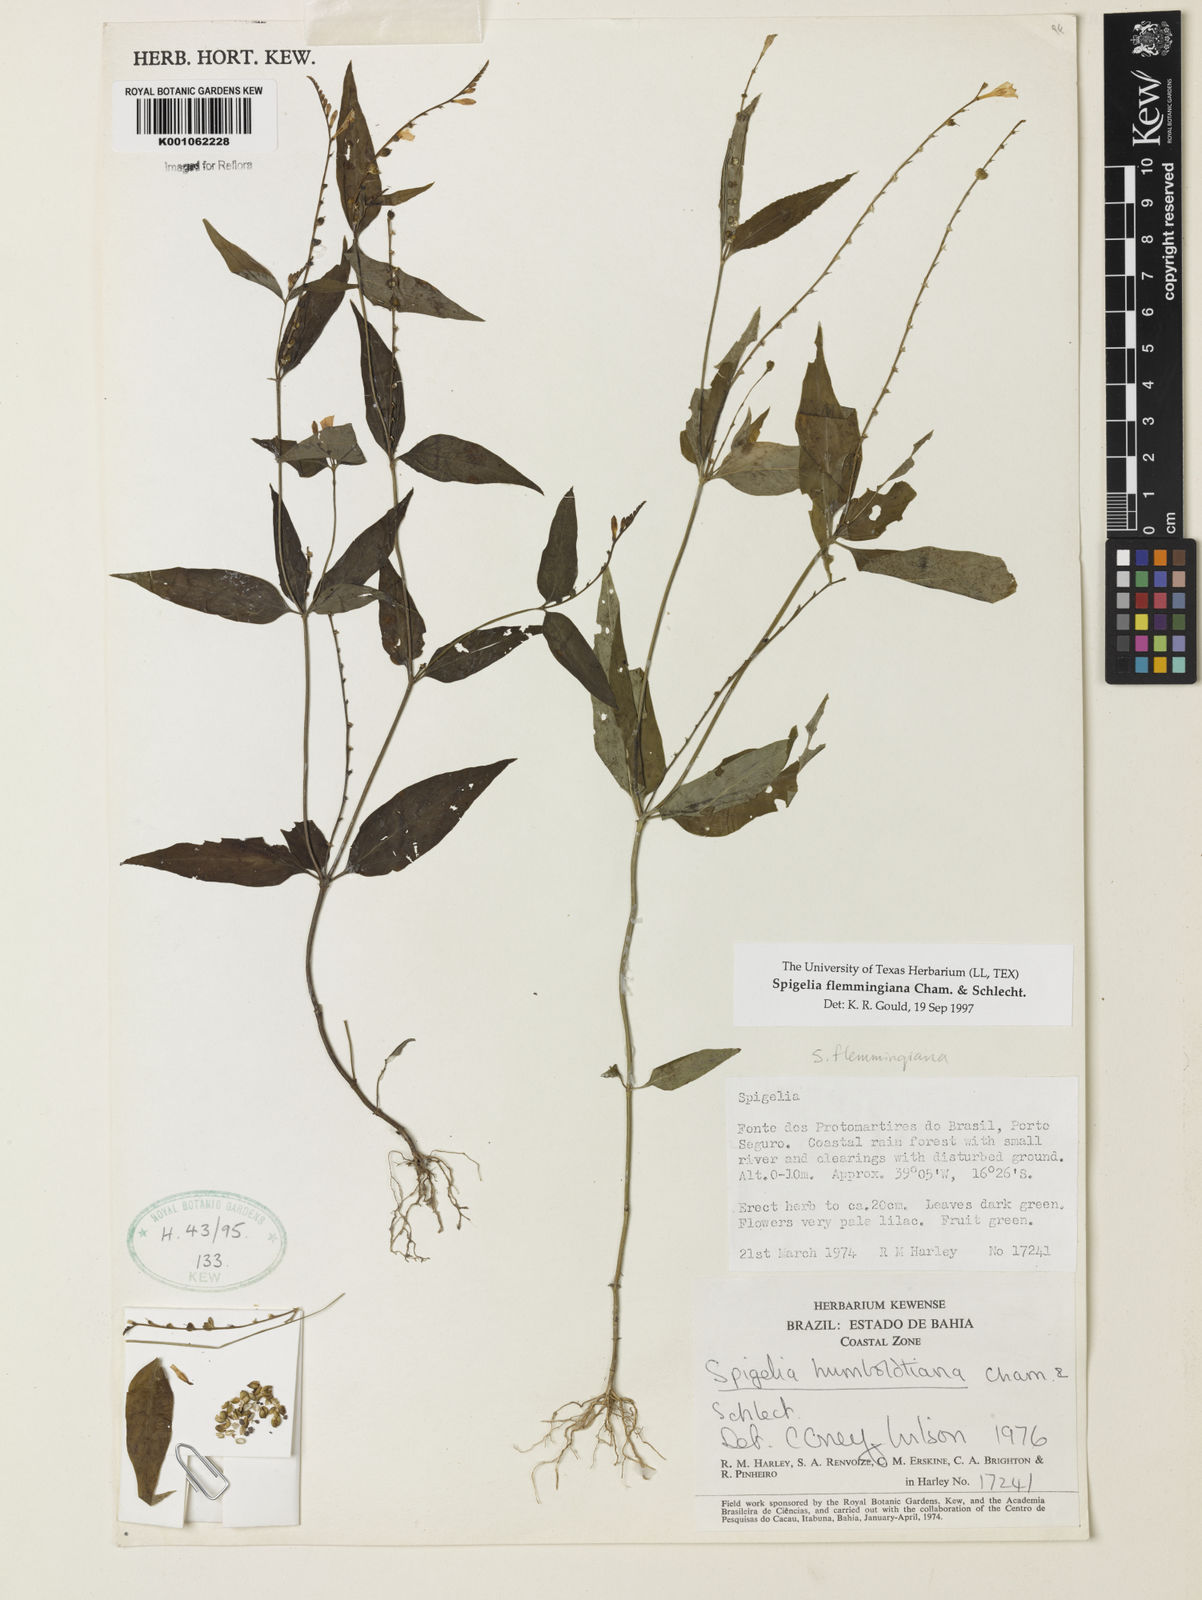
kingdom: Plantae
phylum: Tracheophyta
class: Magnoliopsida
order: Gentianales
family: Loganiaceae
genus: Spigelia
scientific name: Spigelia flemmingiana
